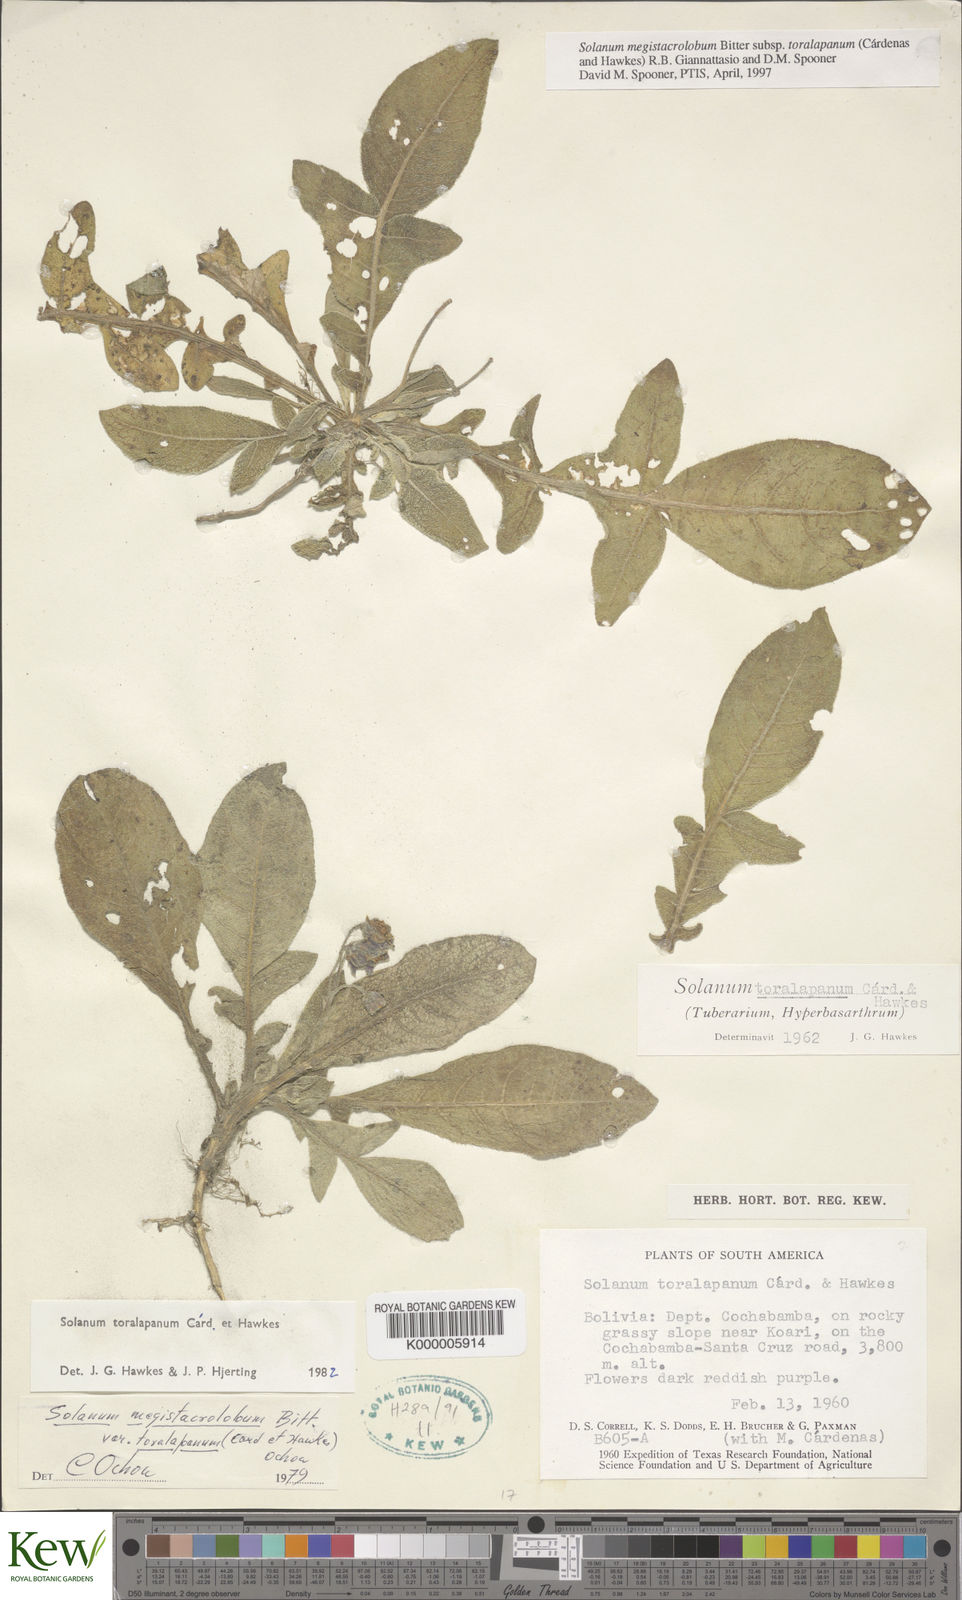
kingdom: Plantae
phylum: Tracheophyta
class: Magnoliopsida
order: Solanales
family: Solanaceae
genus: Solanum
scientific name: Solanum boliviense
